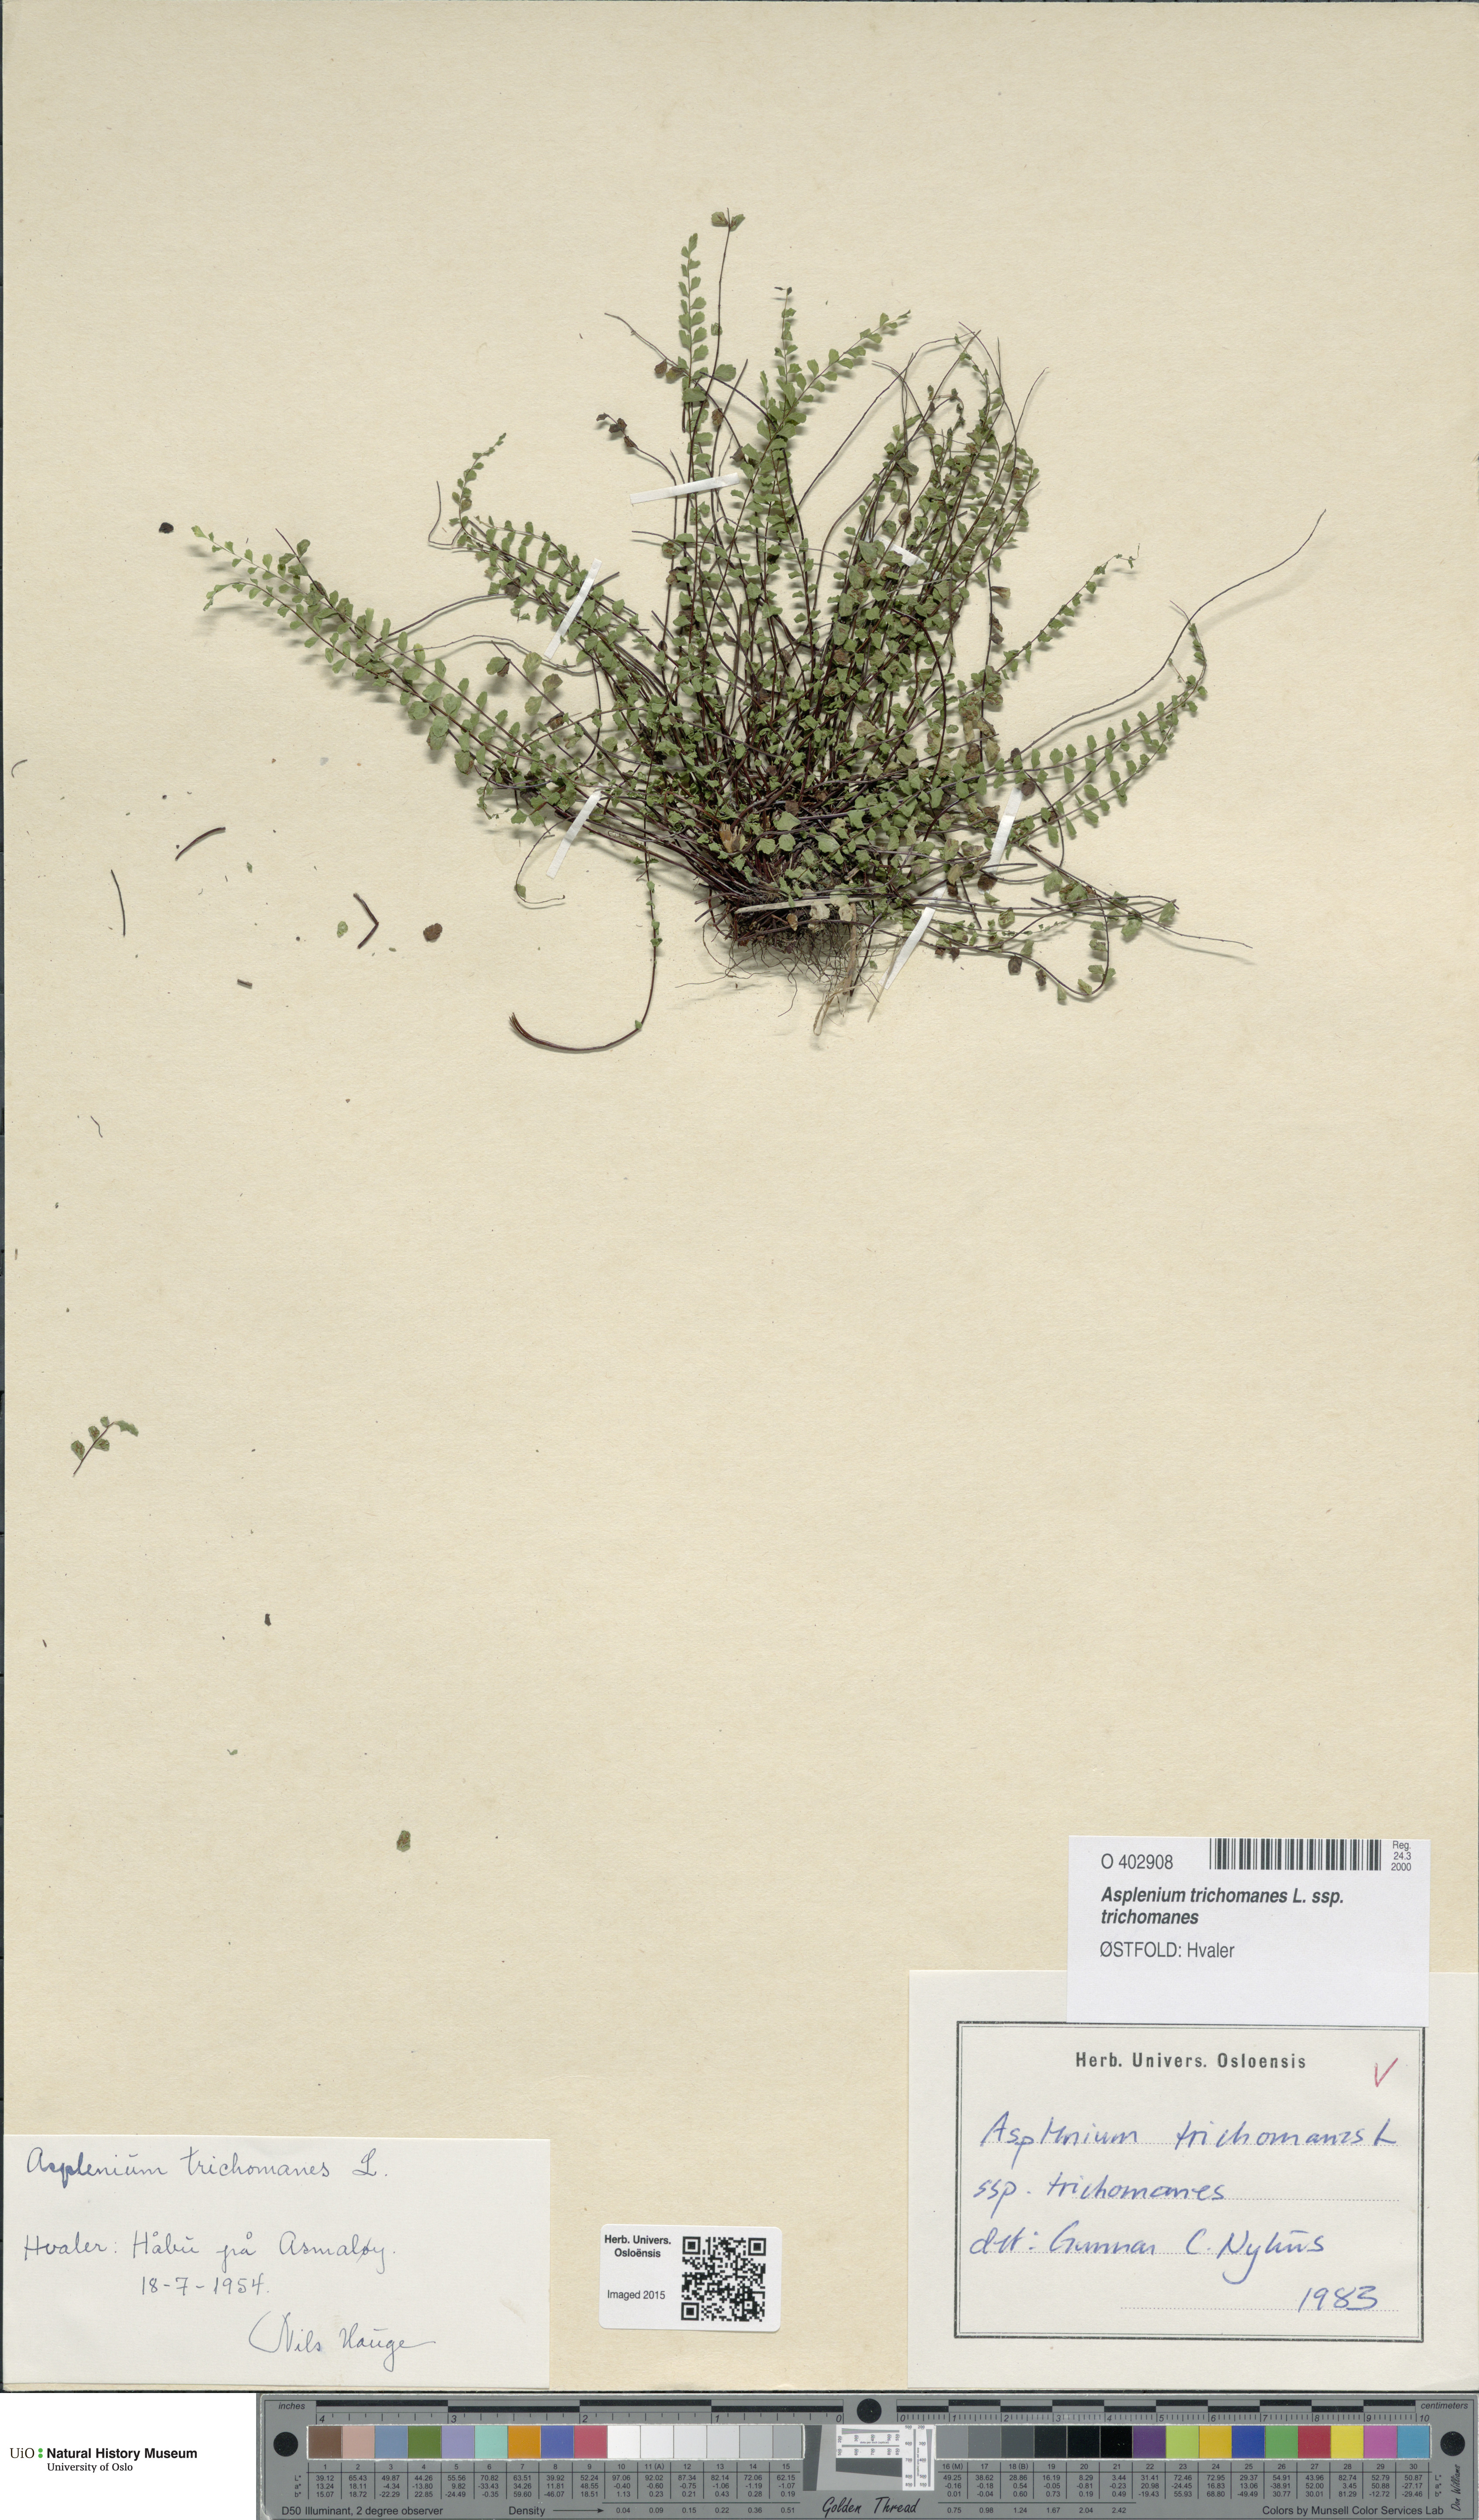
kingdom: Plantae
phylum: Tracheophyta
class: Polypodiopsida
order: Polypodiales
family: Aspleniaceae
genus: Asplenium
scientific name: Asplenium trichomanes
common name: Maidenhair spleenwort
